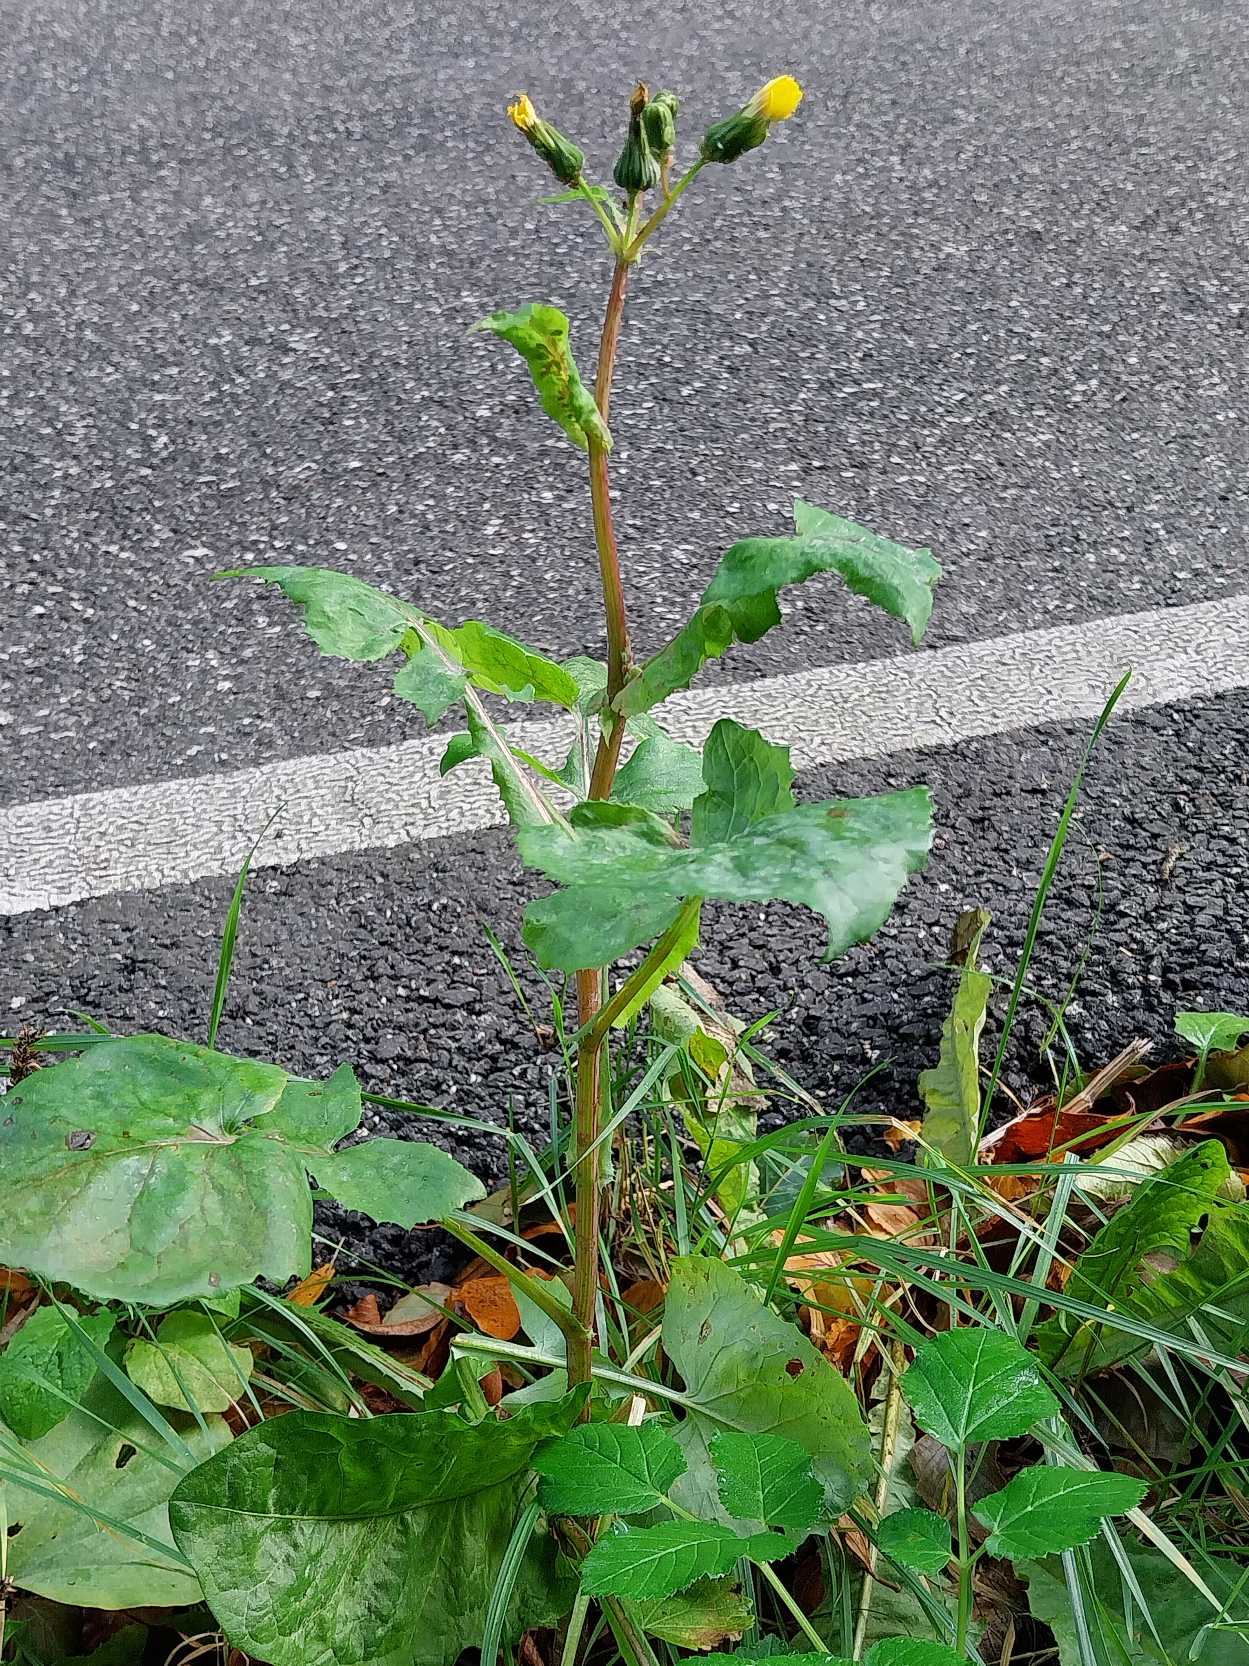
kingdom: Plantae
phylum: Tracheophyta
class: Magnoliopsida
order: Asterales
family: Asteraceae
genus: Sonchus
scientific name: Sonchus oleraceus
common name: Almindelig svinemælk
